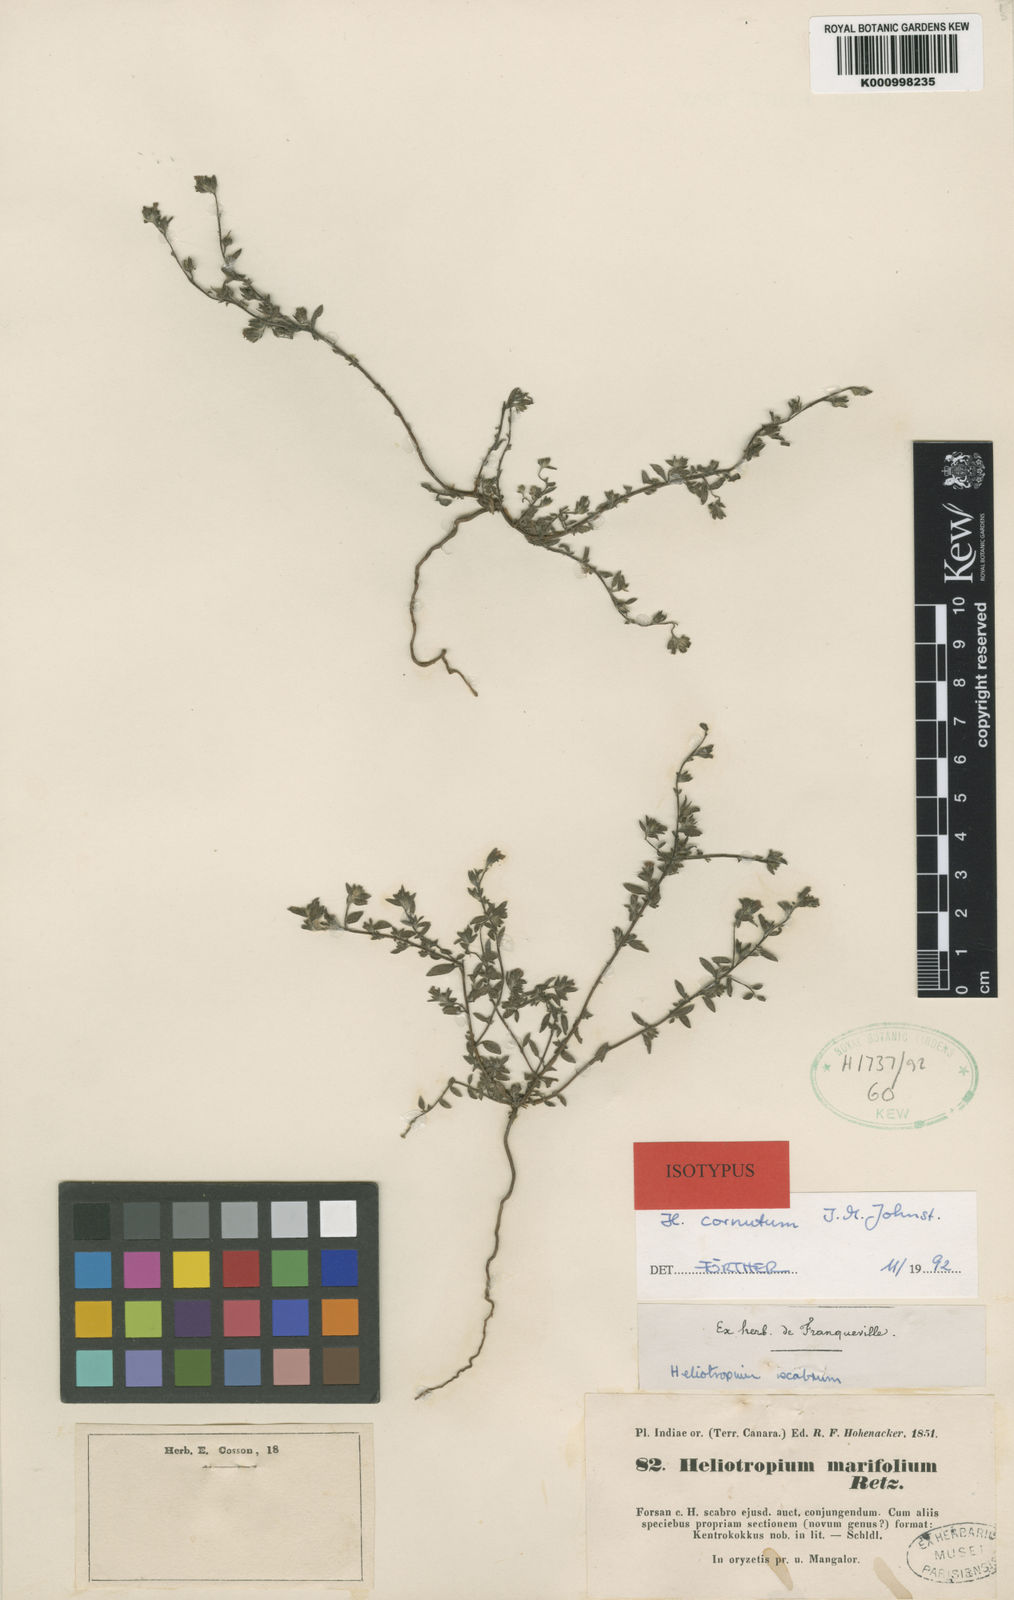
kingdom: Plantae
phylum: Tracheophyta
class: Magnoliopsida
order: Boraginales
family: Heliotropiaceae
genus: Euploca
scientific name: Euploca cornuta
